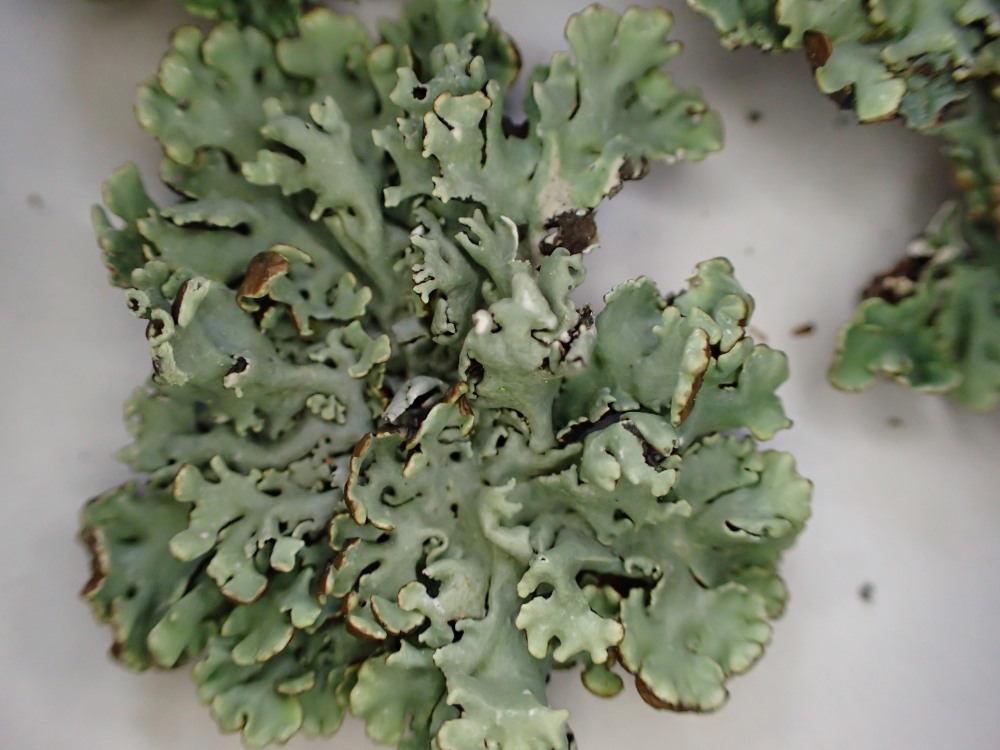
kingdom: Fungi
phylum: Ascomycota
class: Lecanoromycetes
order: Lecanorales
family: Parmeliaceae
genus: Hypogymnia
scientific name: Hypogymnia physodes
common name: almindelig kvistlav
